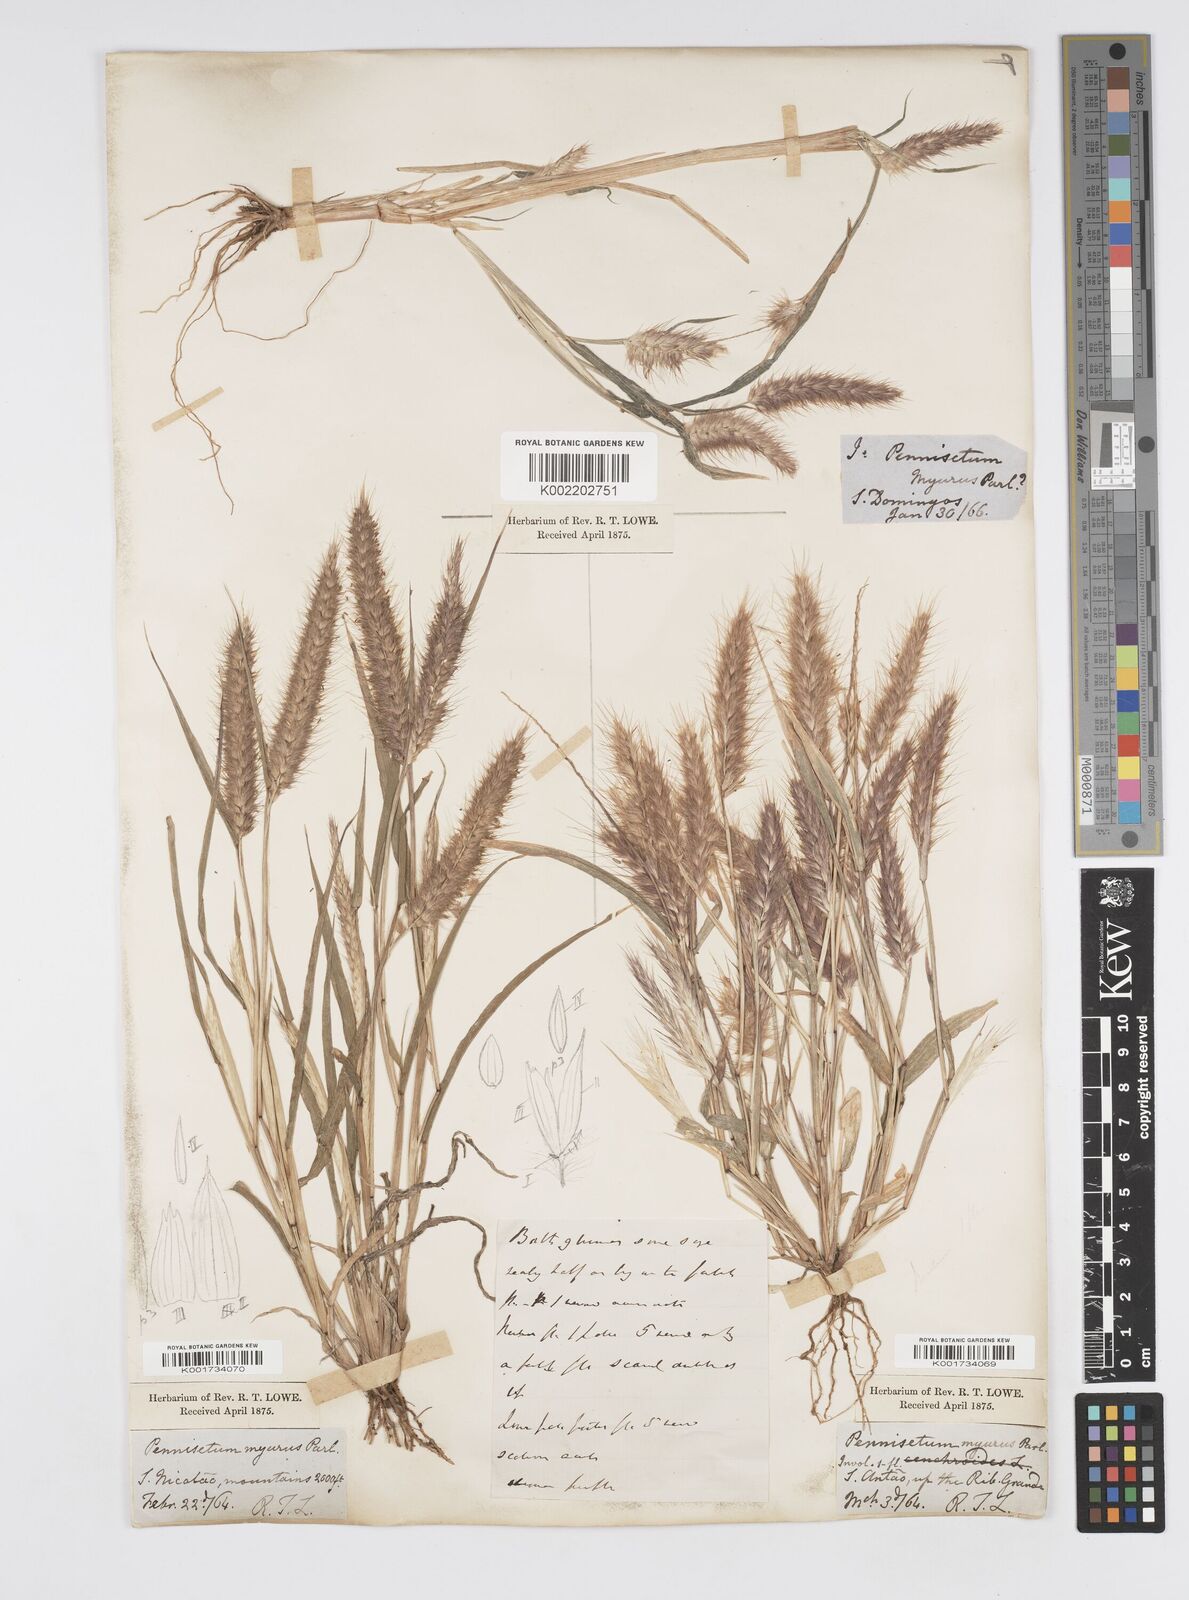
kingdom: Plantae
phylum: Tracheophyta
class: Liliopsida
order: Poales
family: Poaceae
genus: Cenchrus
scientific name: Cenchrus pedicellatus
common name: Hairy fountain grass
